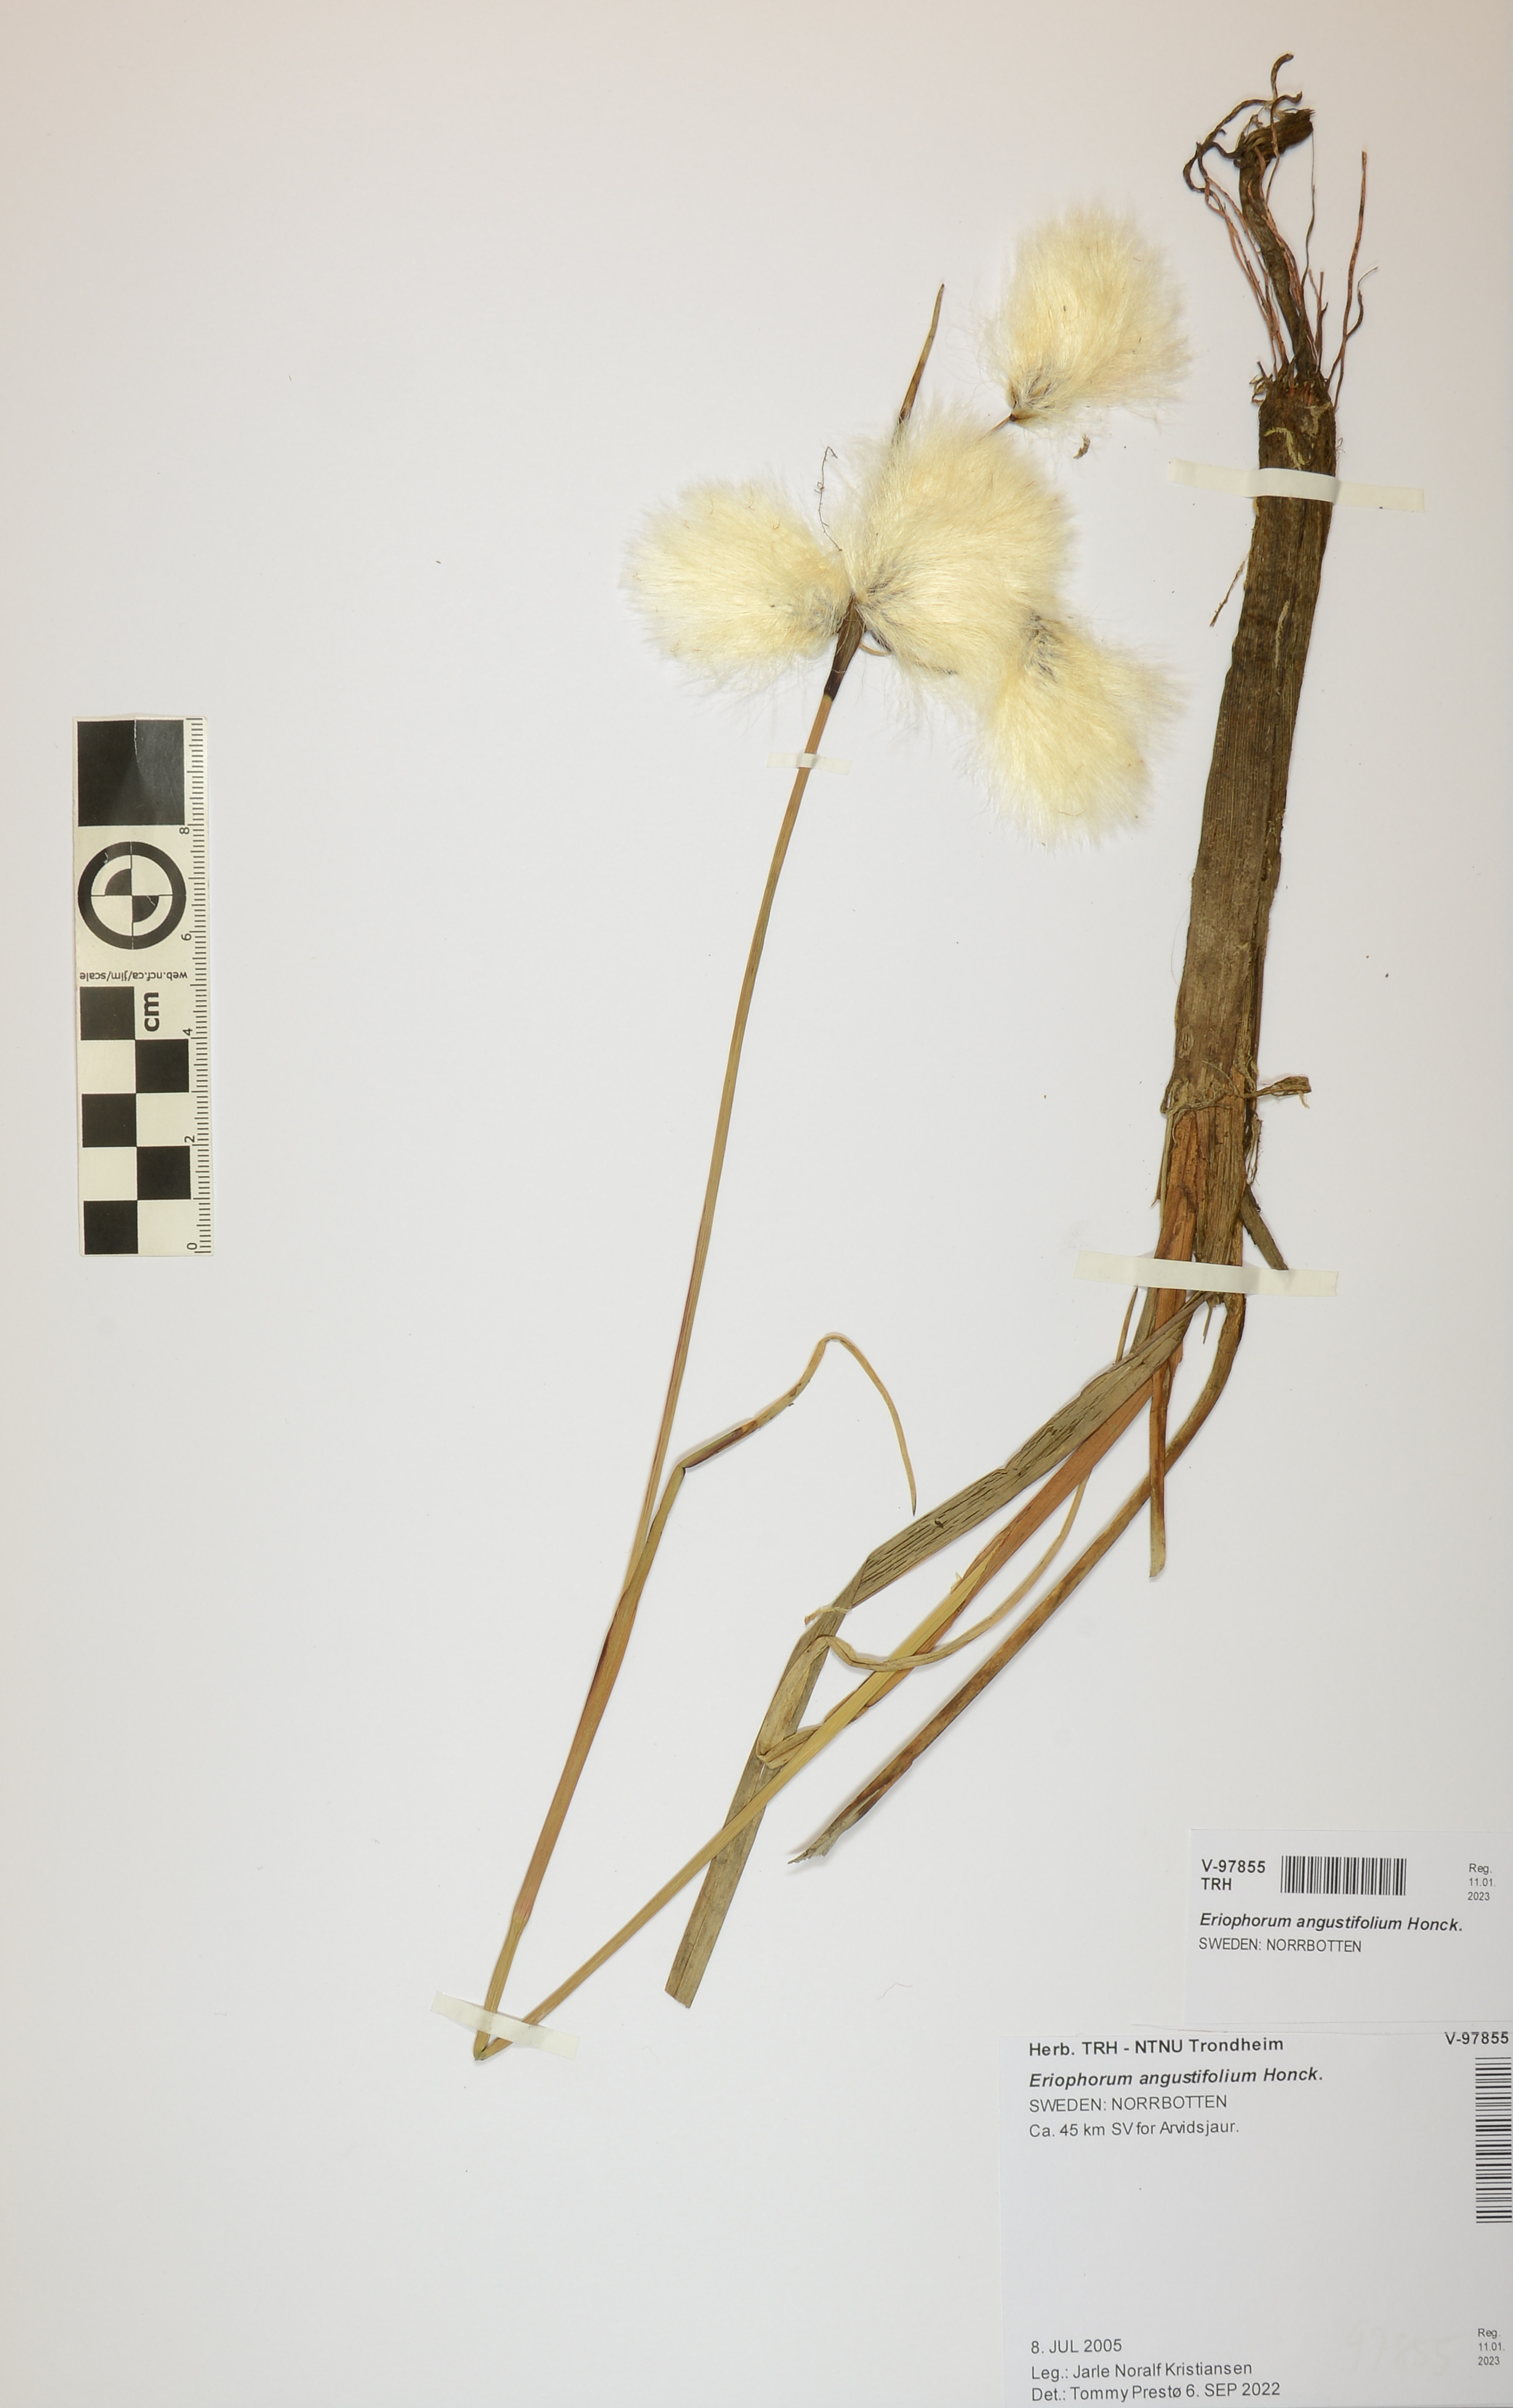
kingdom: Plantae
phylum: Tracheophyta
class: Liliopsida
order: Poales
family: Cyperaceae
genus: Eriophorum
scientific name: Eriophorum angustifolium
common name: Common cottongrass
